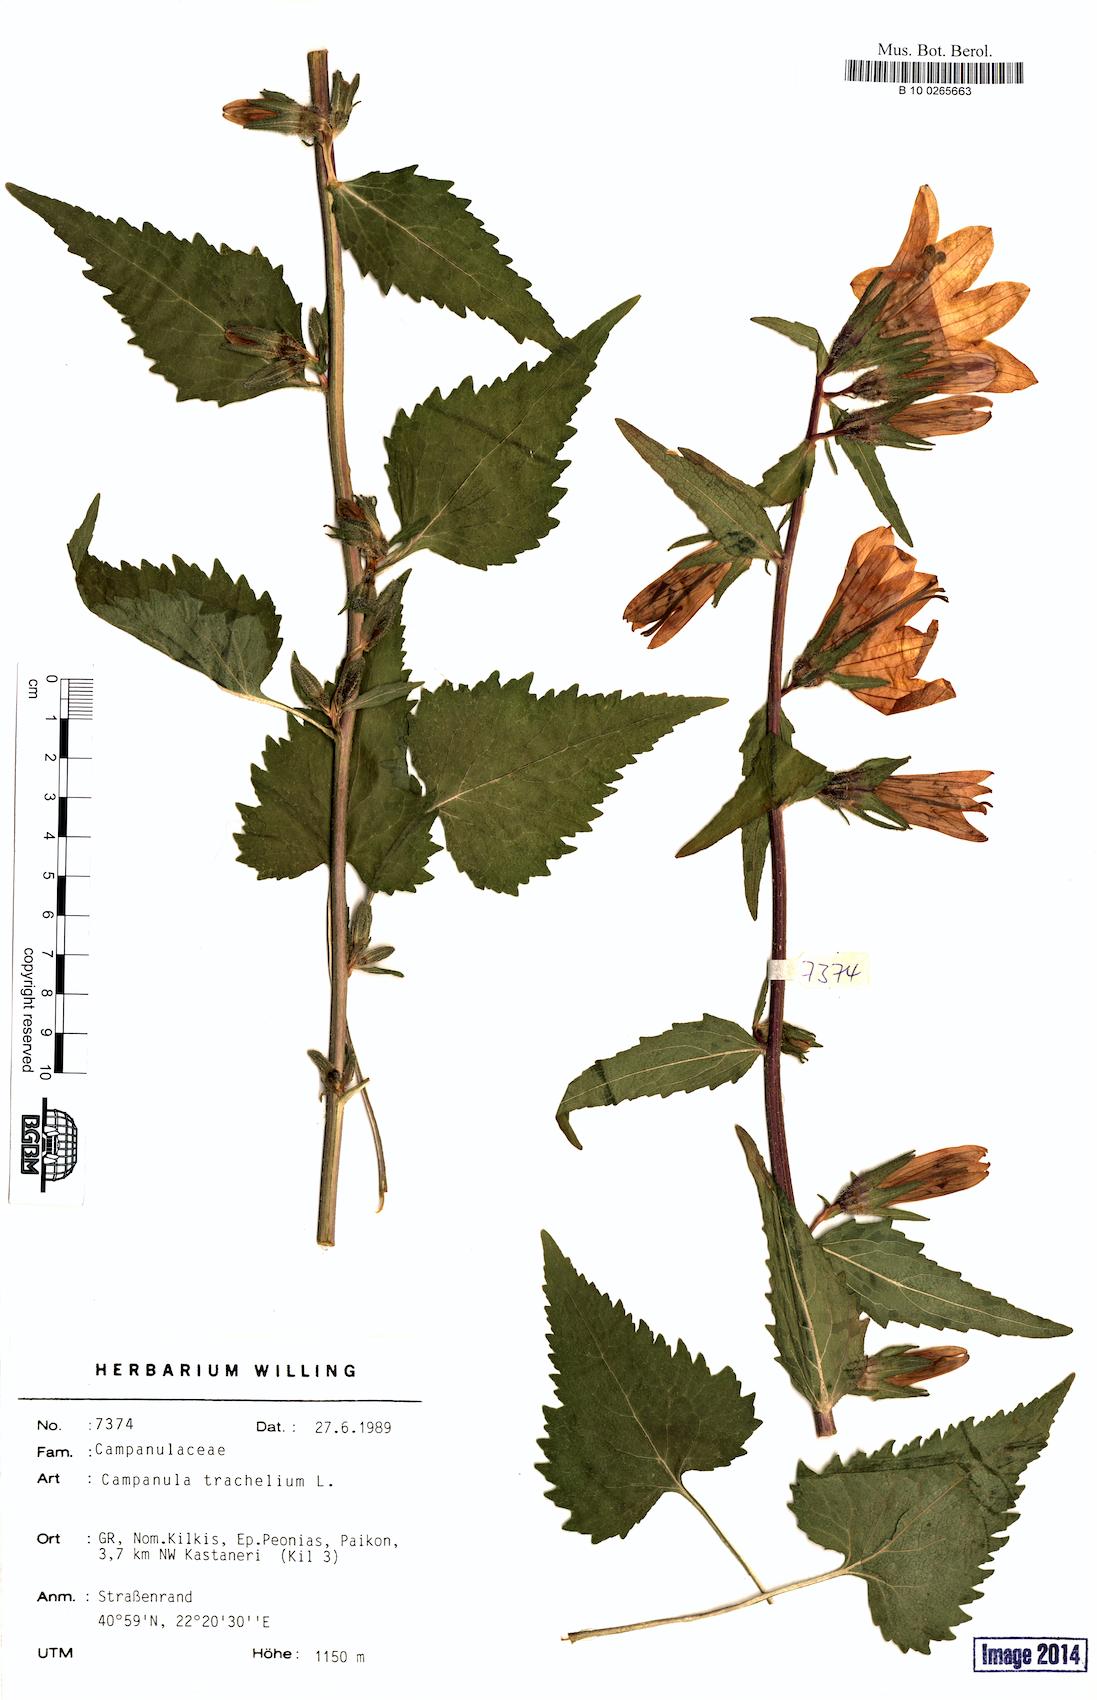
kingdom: Plantae
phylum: Tracheophyta
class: Magnoliopsida
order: Asterales
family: Campanulaceae
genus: Campanula
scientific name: Campanula trachelium
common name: Nettle-leaved bellflower
